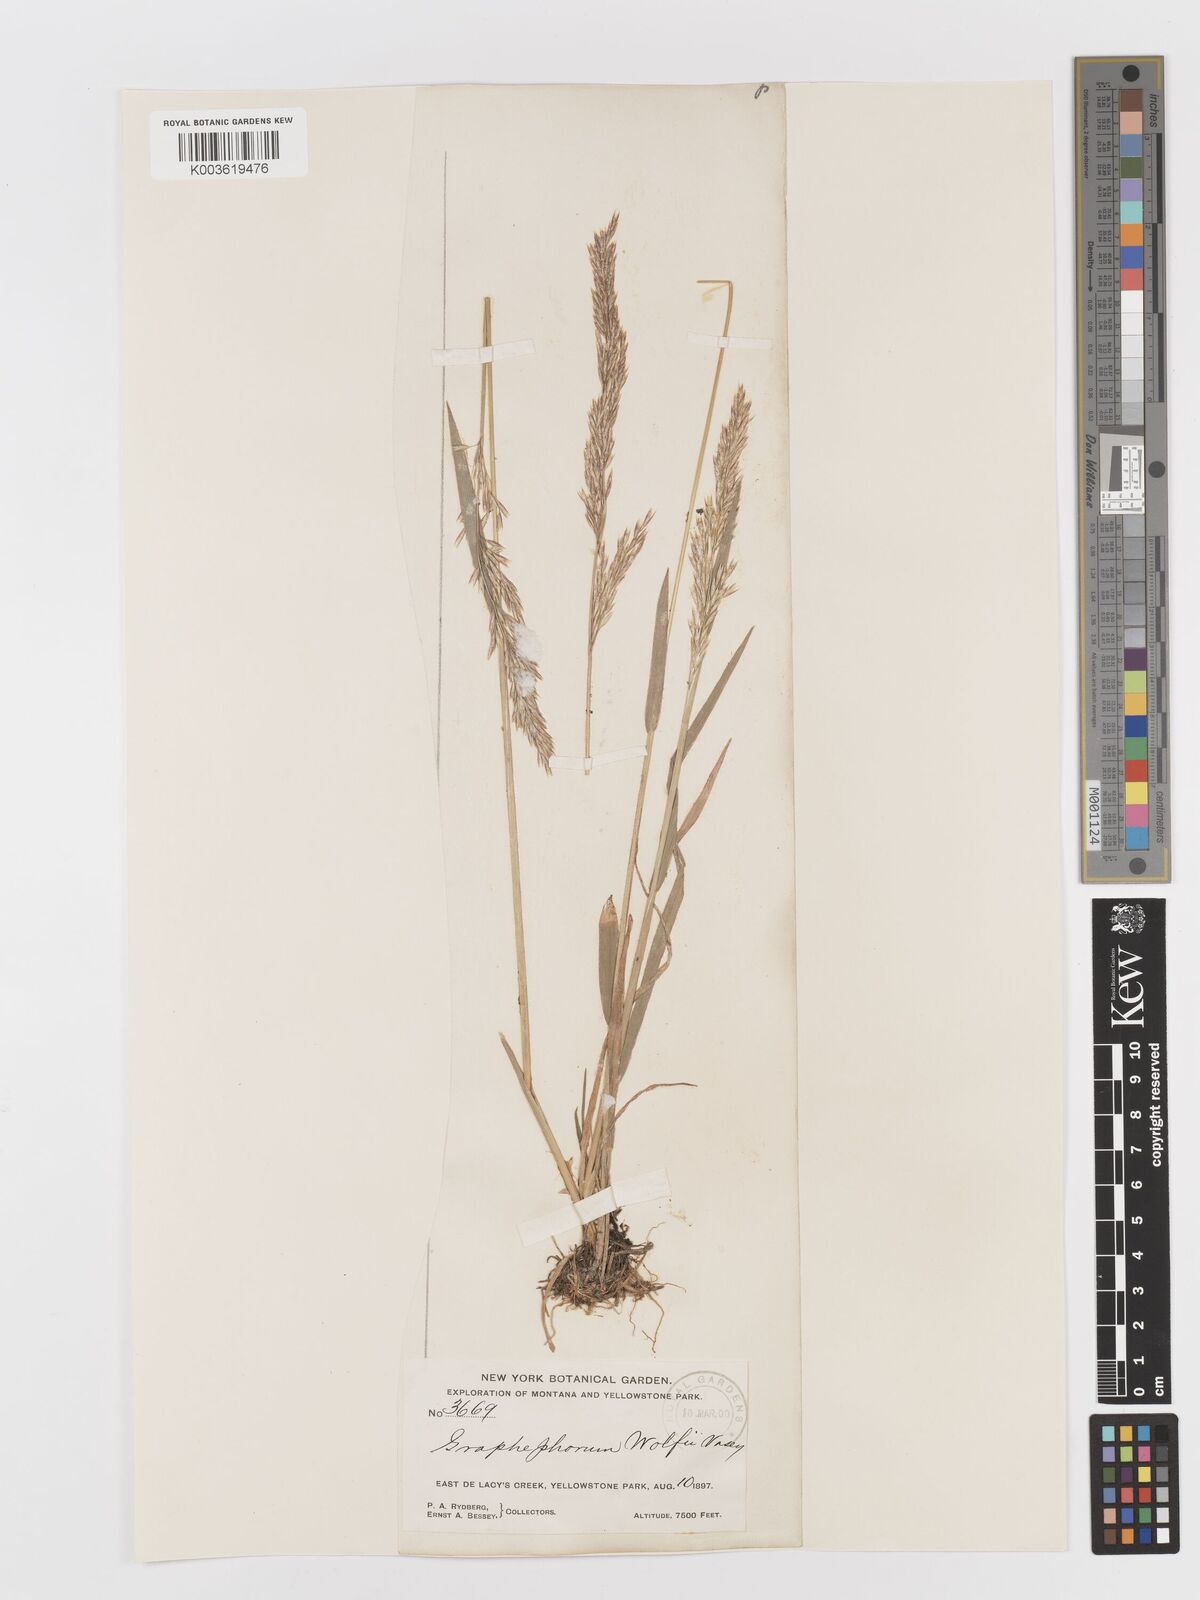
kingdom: Plantae
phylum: Tracheophyta
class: Liliopsida
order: Poales
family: Poaceae
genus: Graphephorum
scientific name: Graphephorum wolfii
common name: Wolf's trisetum
